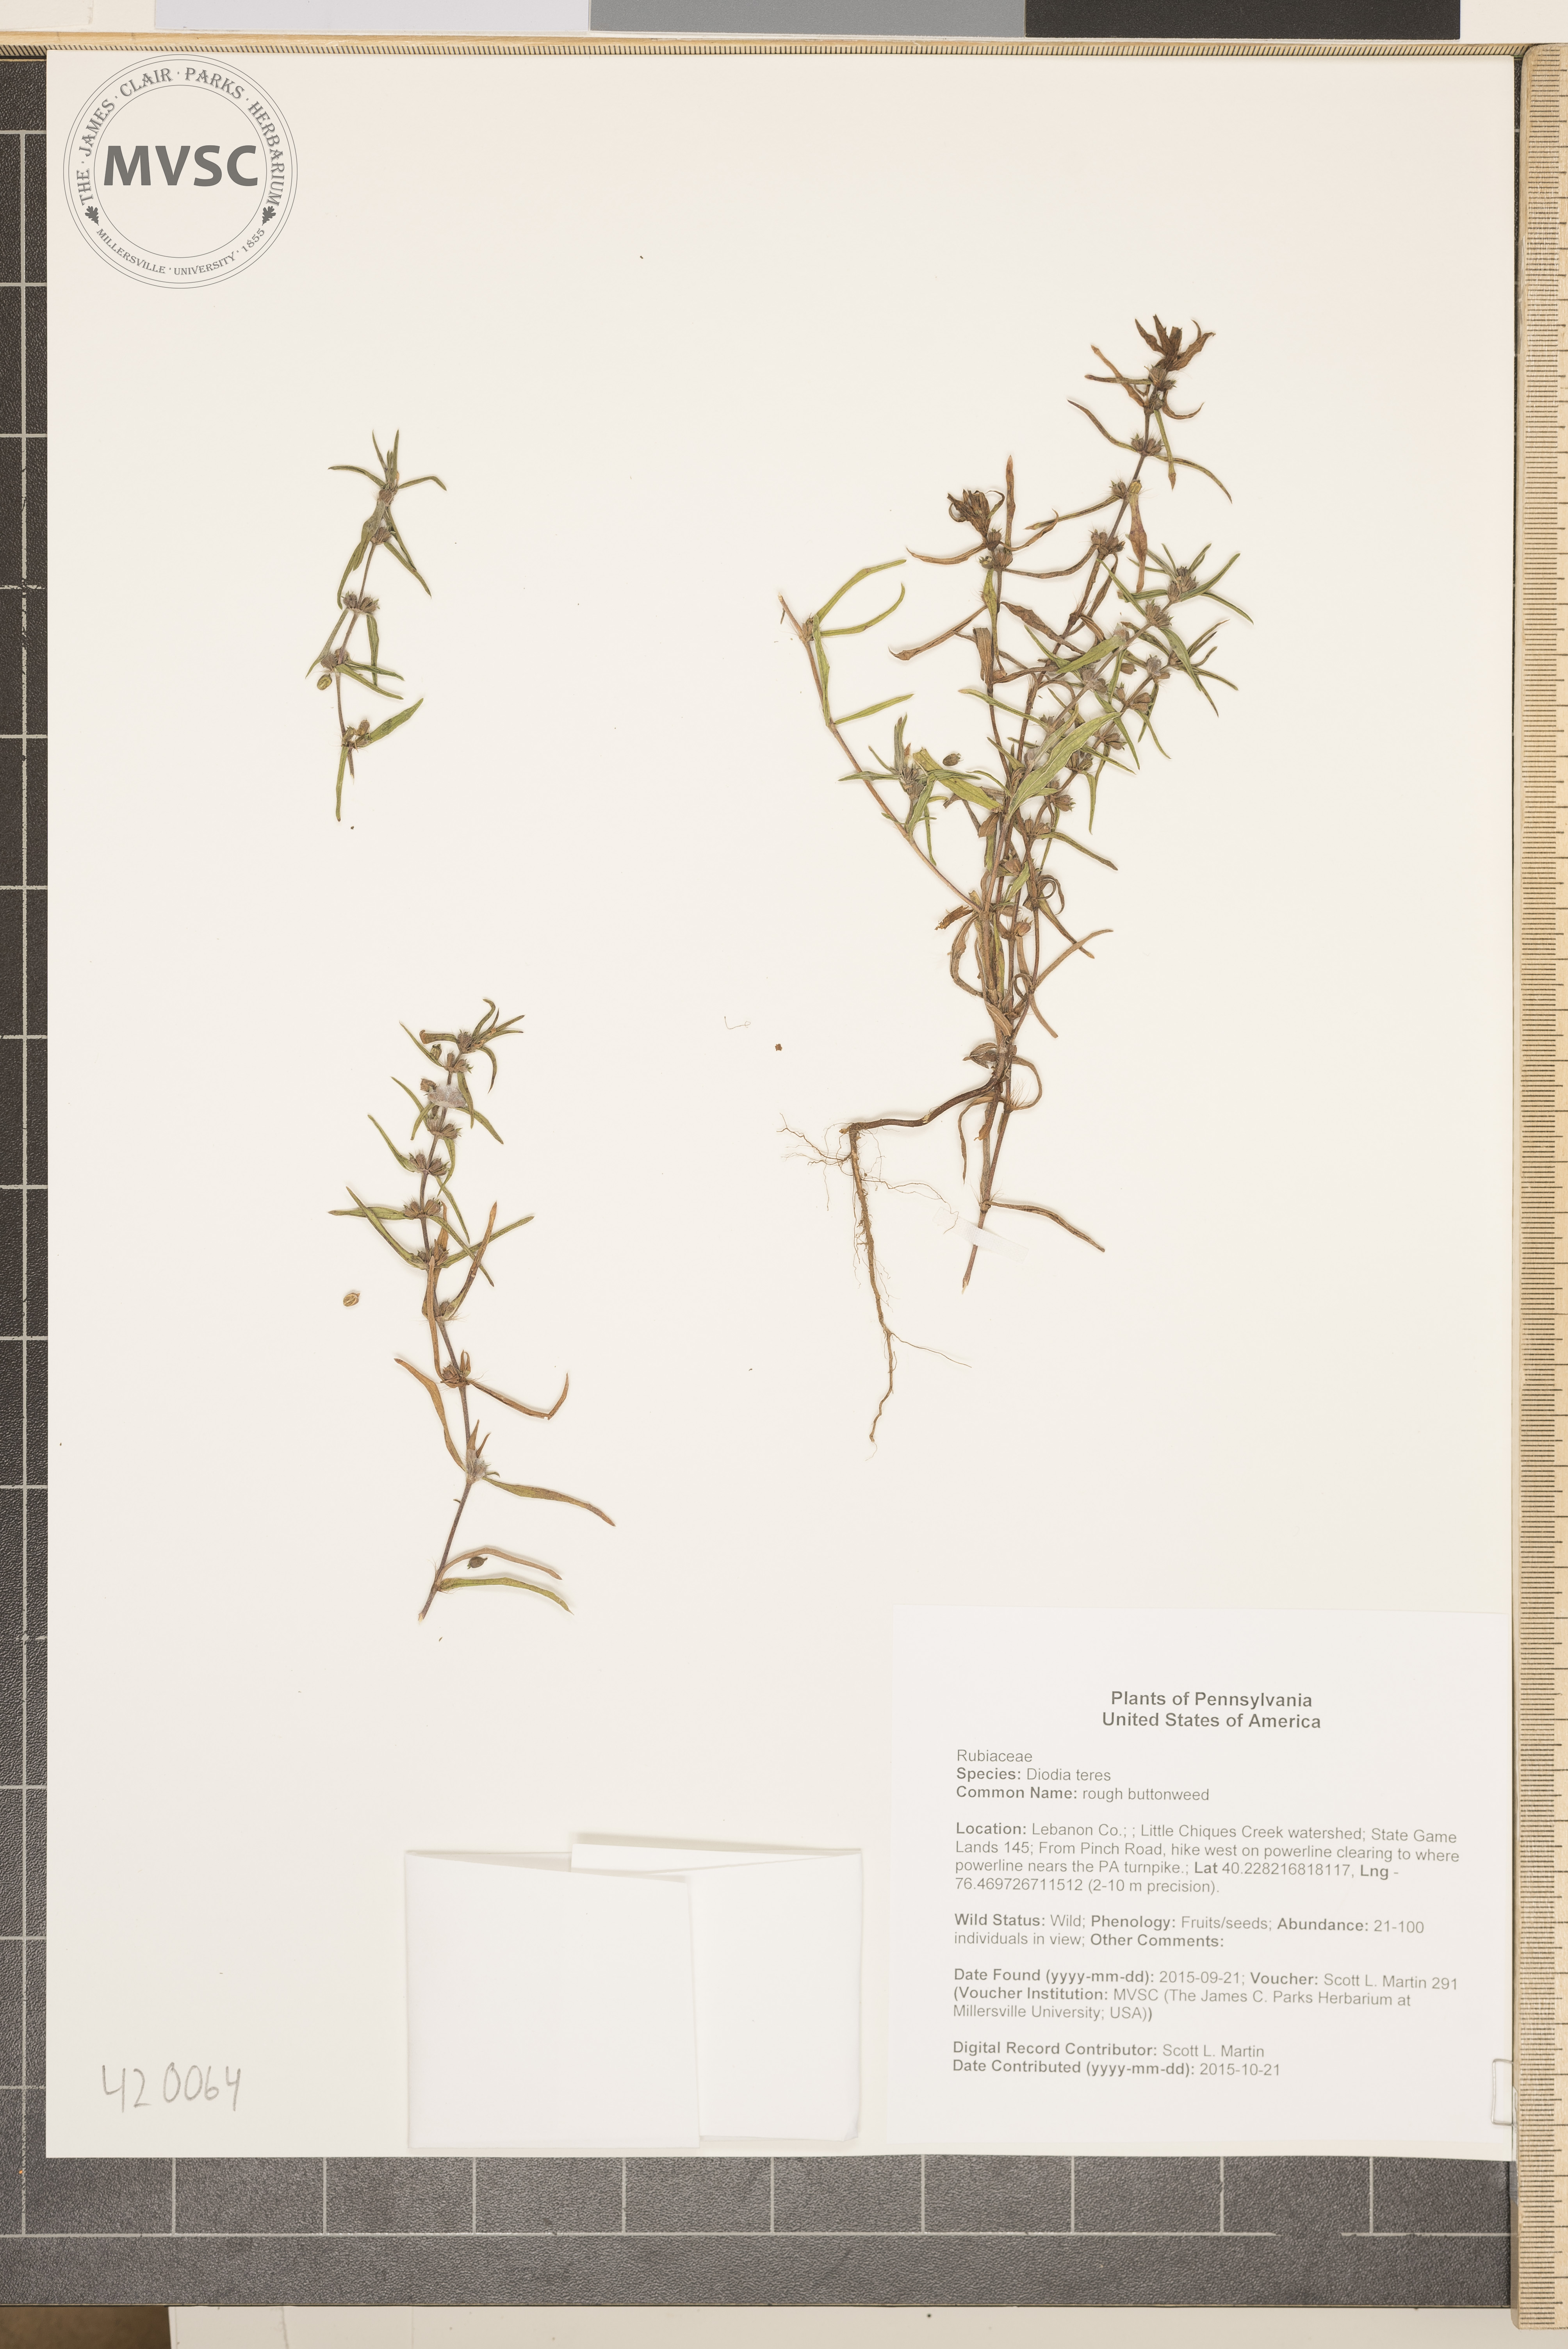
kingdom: Plantae
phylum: Tracheophyta
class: Magnoliopsida
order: Gentianales
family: Rubiaceae
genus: Hexasepalum
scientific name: Hexasepalum teres
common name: rough buttonweed
